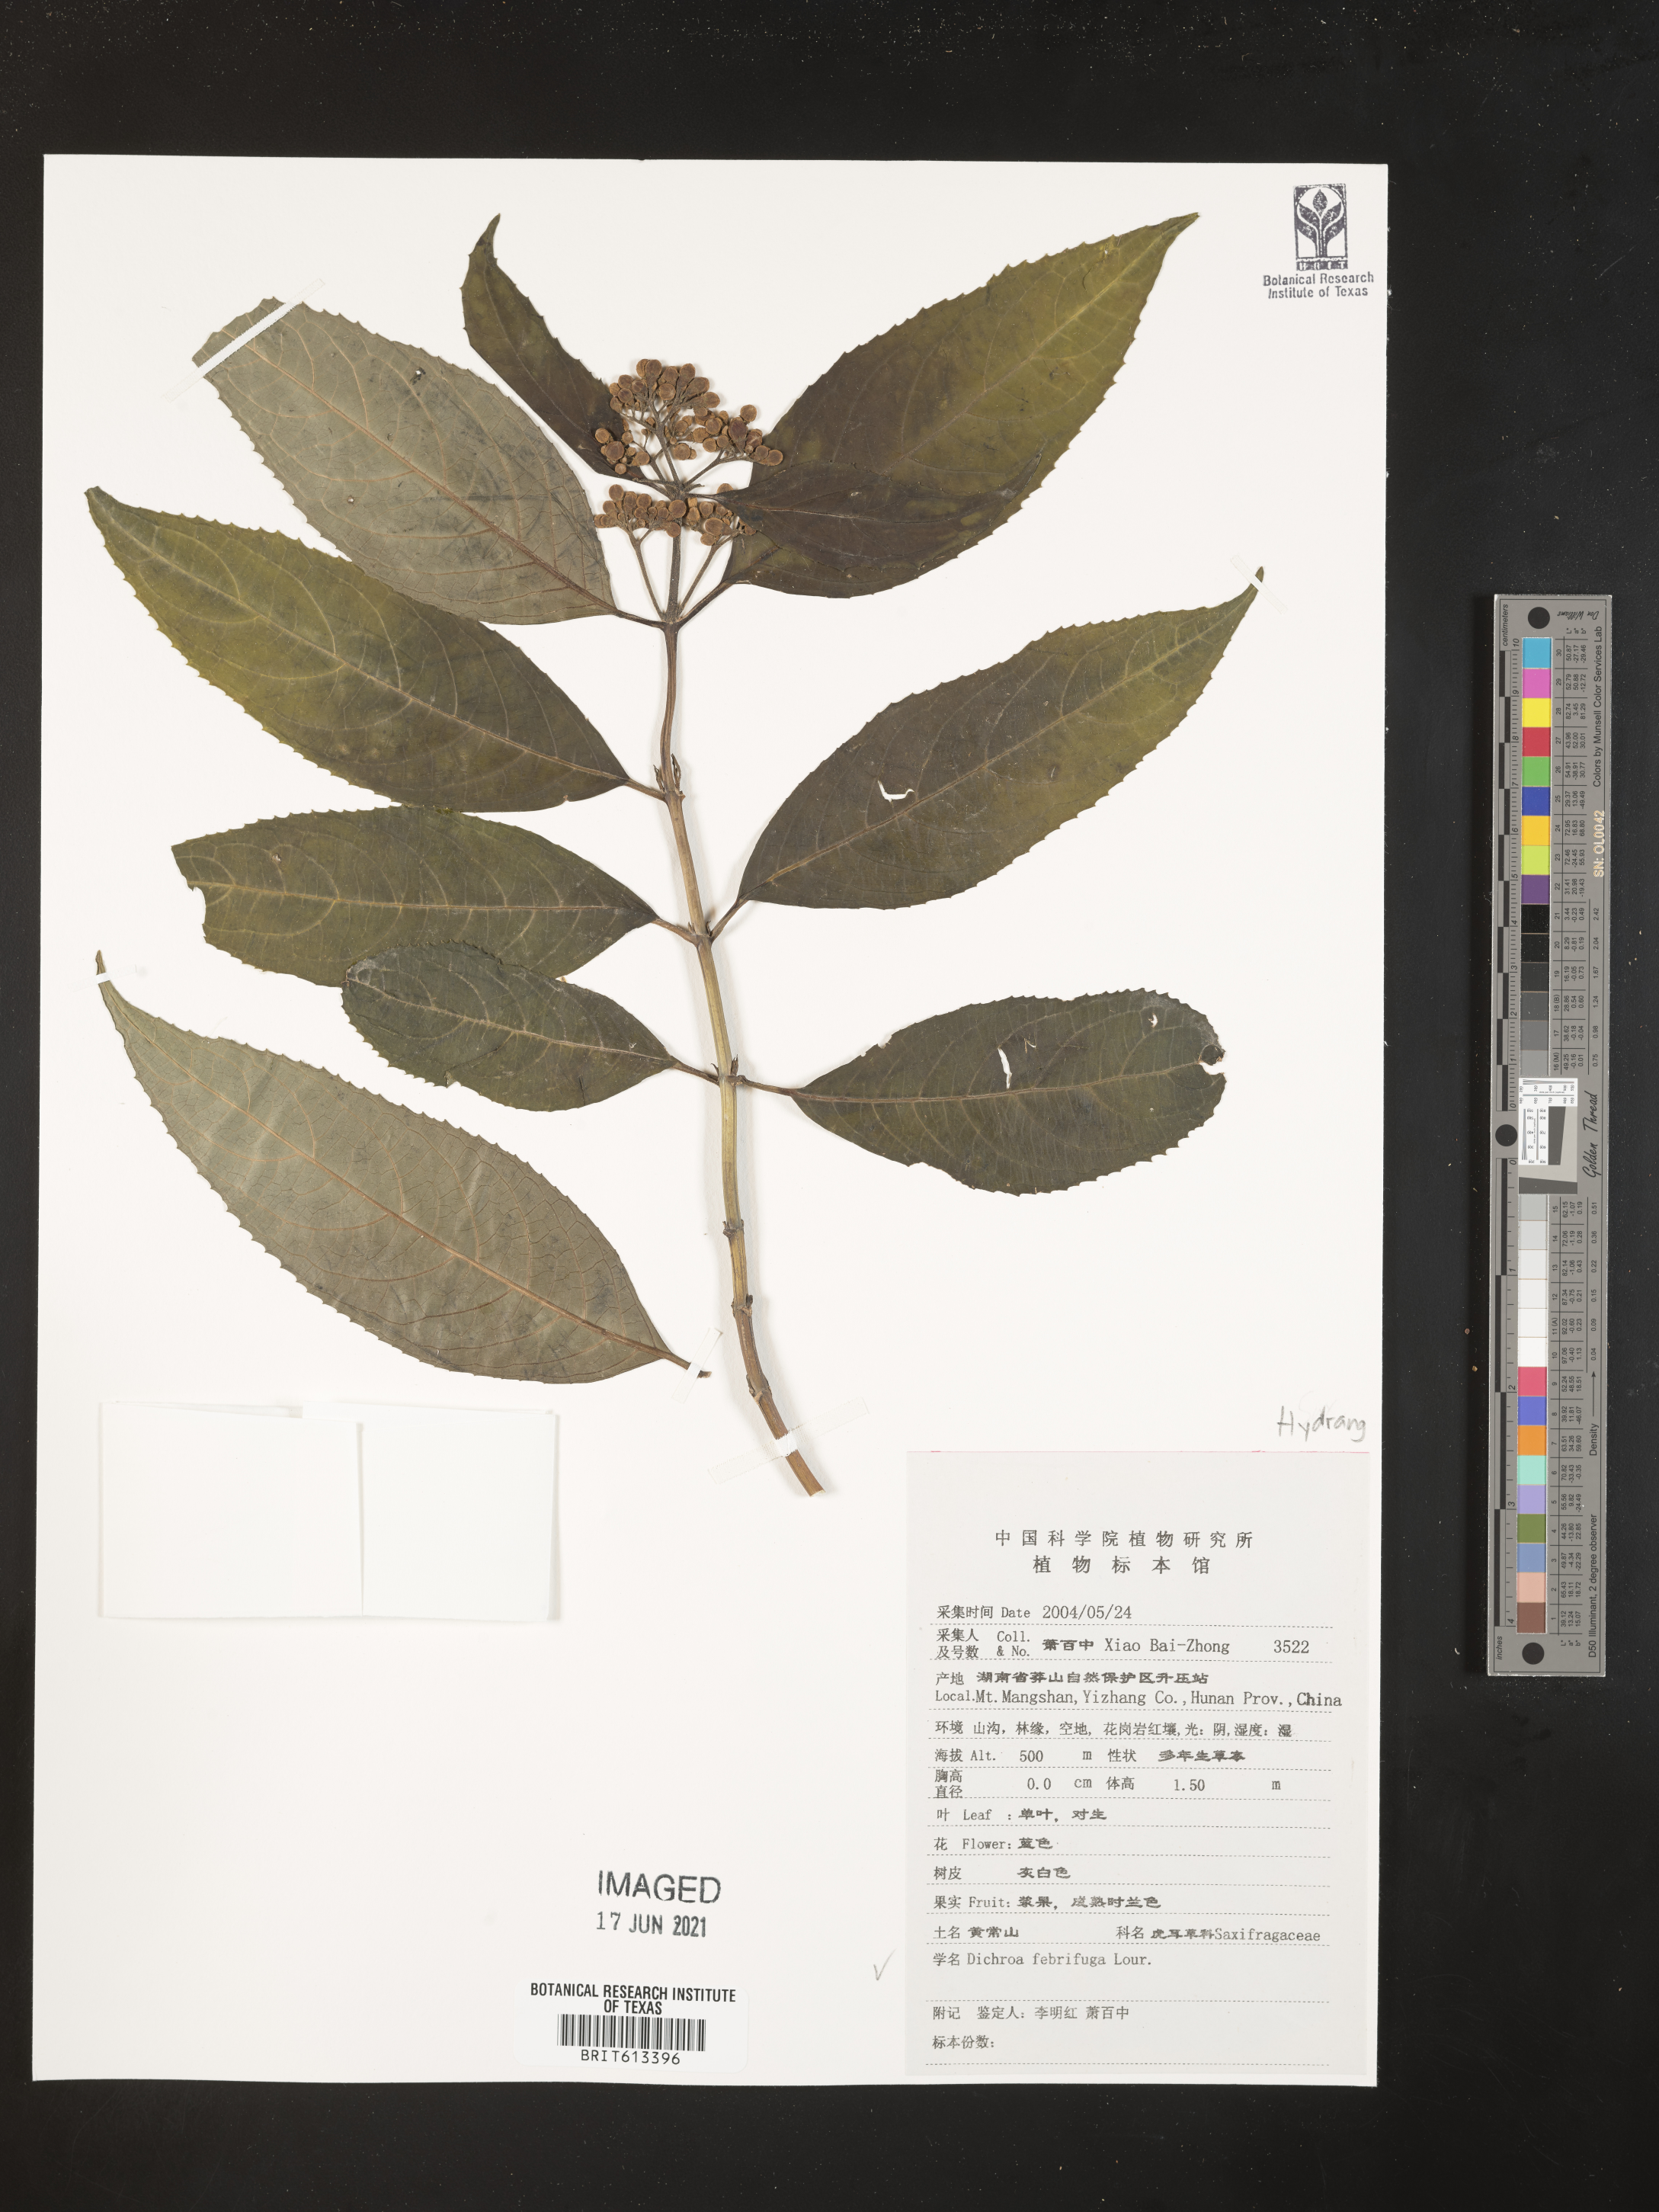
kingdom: Plantae
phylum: Tracheophyta
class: Magnoliopsida
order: Cornales
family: Hydrangeaceae
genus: Hydrangea
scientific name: Hydrangea febrifuga
